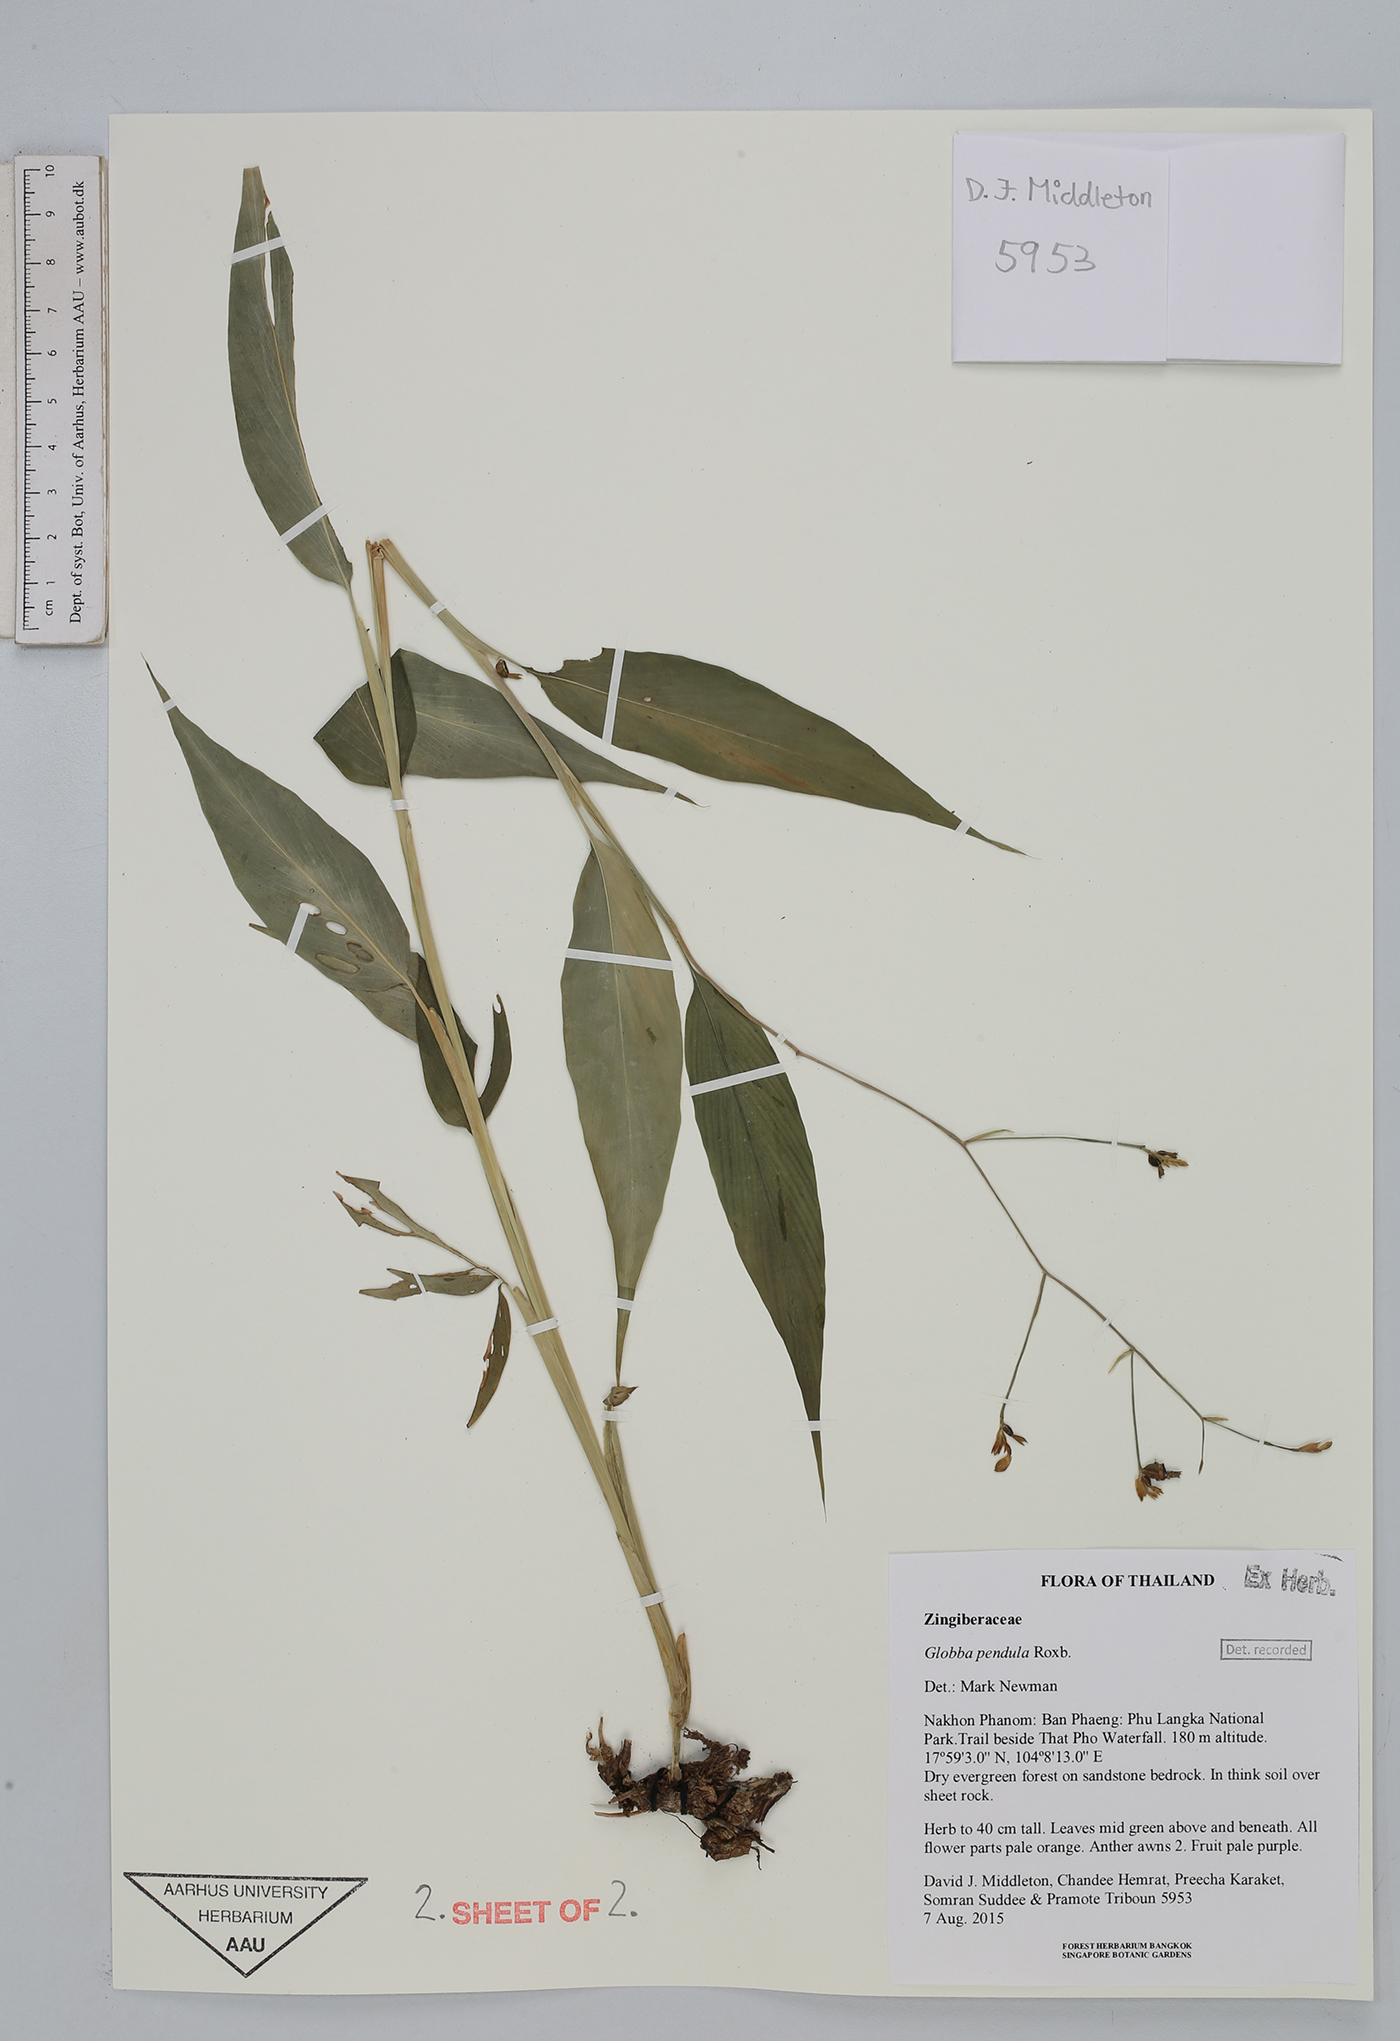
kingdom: Plantae
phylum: Tracheophyta
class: Liliopsida
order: Zingiberales
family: Zingiberaceae
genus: Globba
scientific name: Globba pendula
